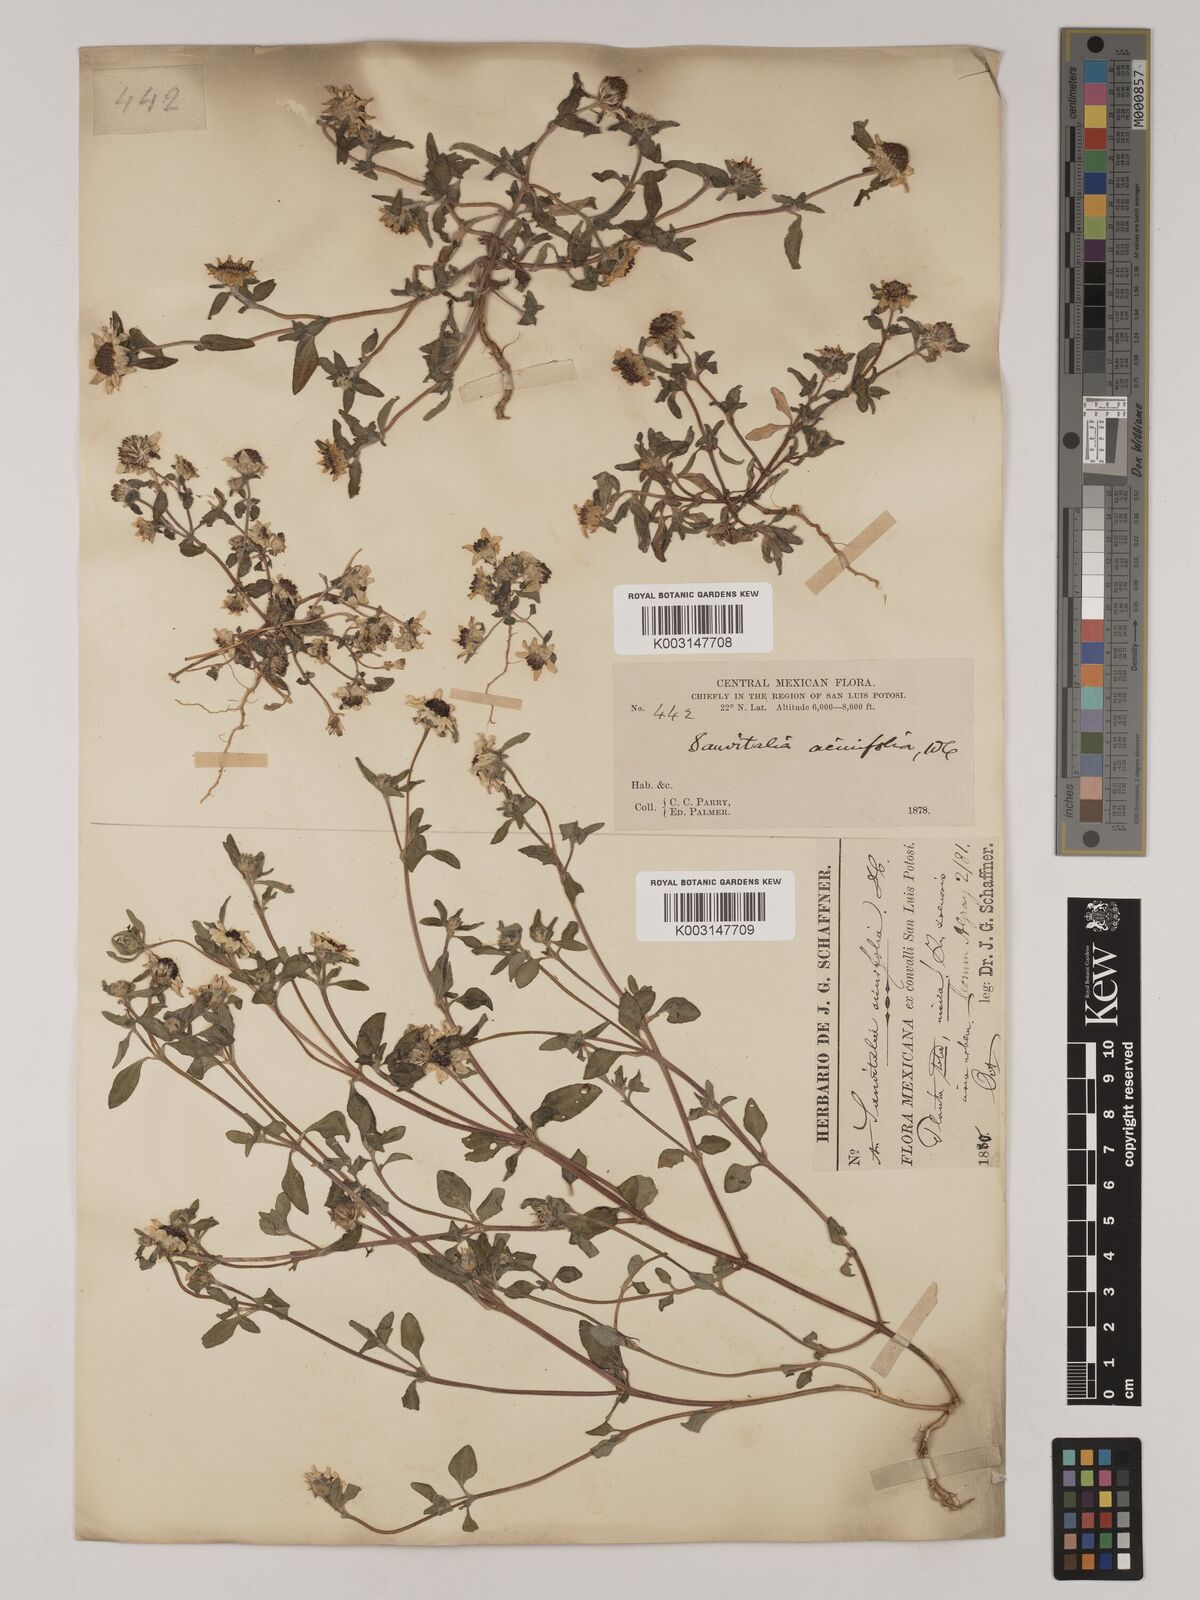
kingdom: Plantae
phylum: Tracheophyta
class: Magnoliopsida
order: Asterales
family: Asteraceae
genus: Sanvitalia
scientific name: Sanvitalia procumbens
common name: Mexican creeping zinnia
